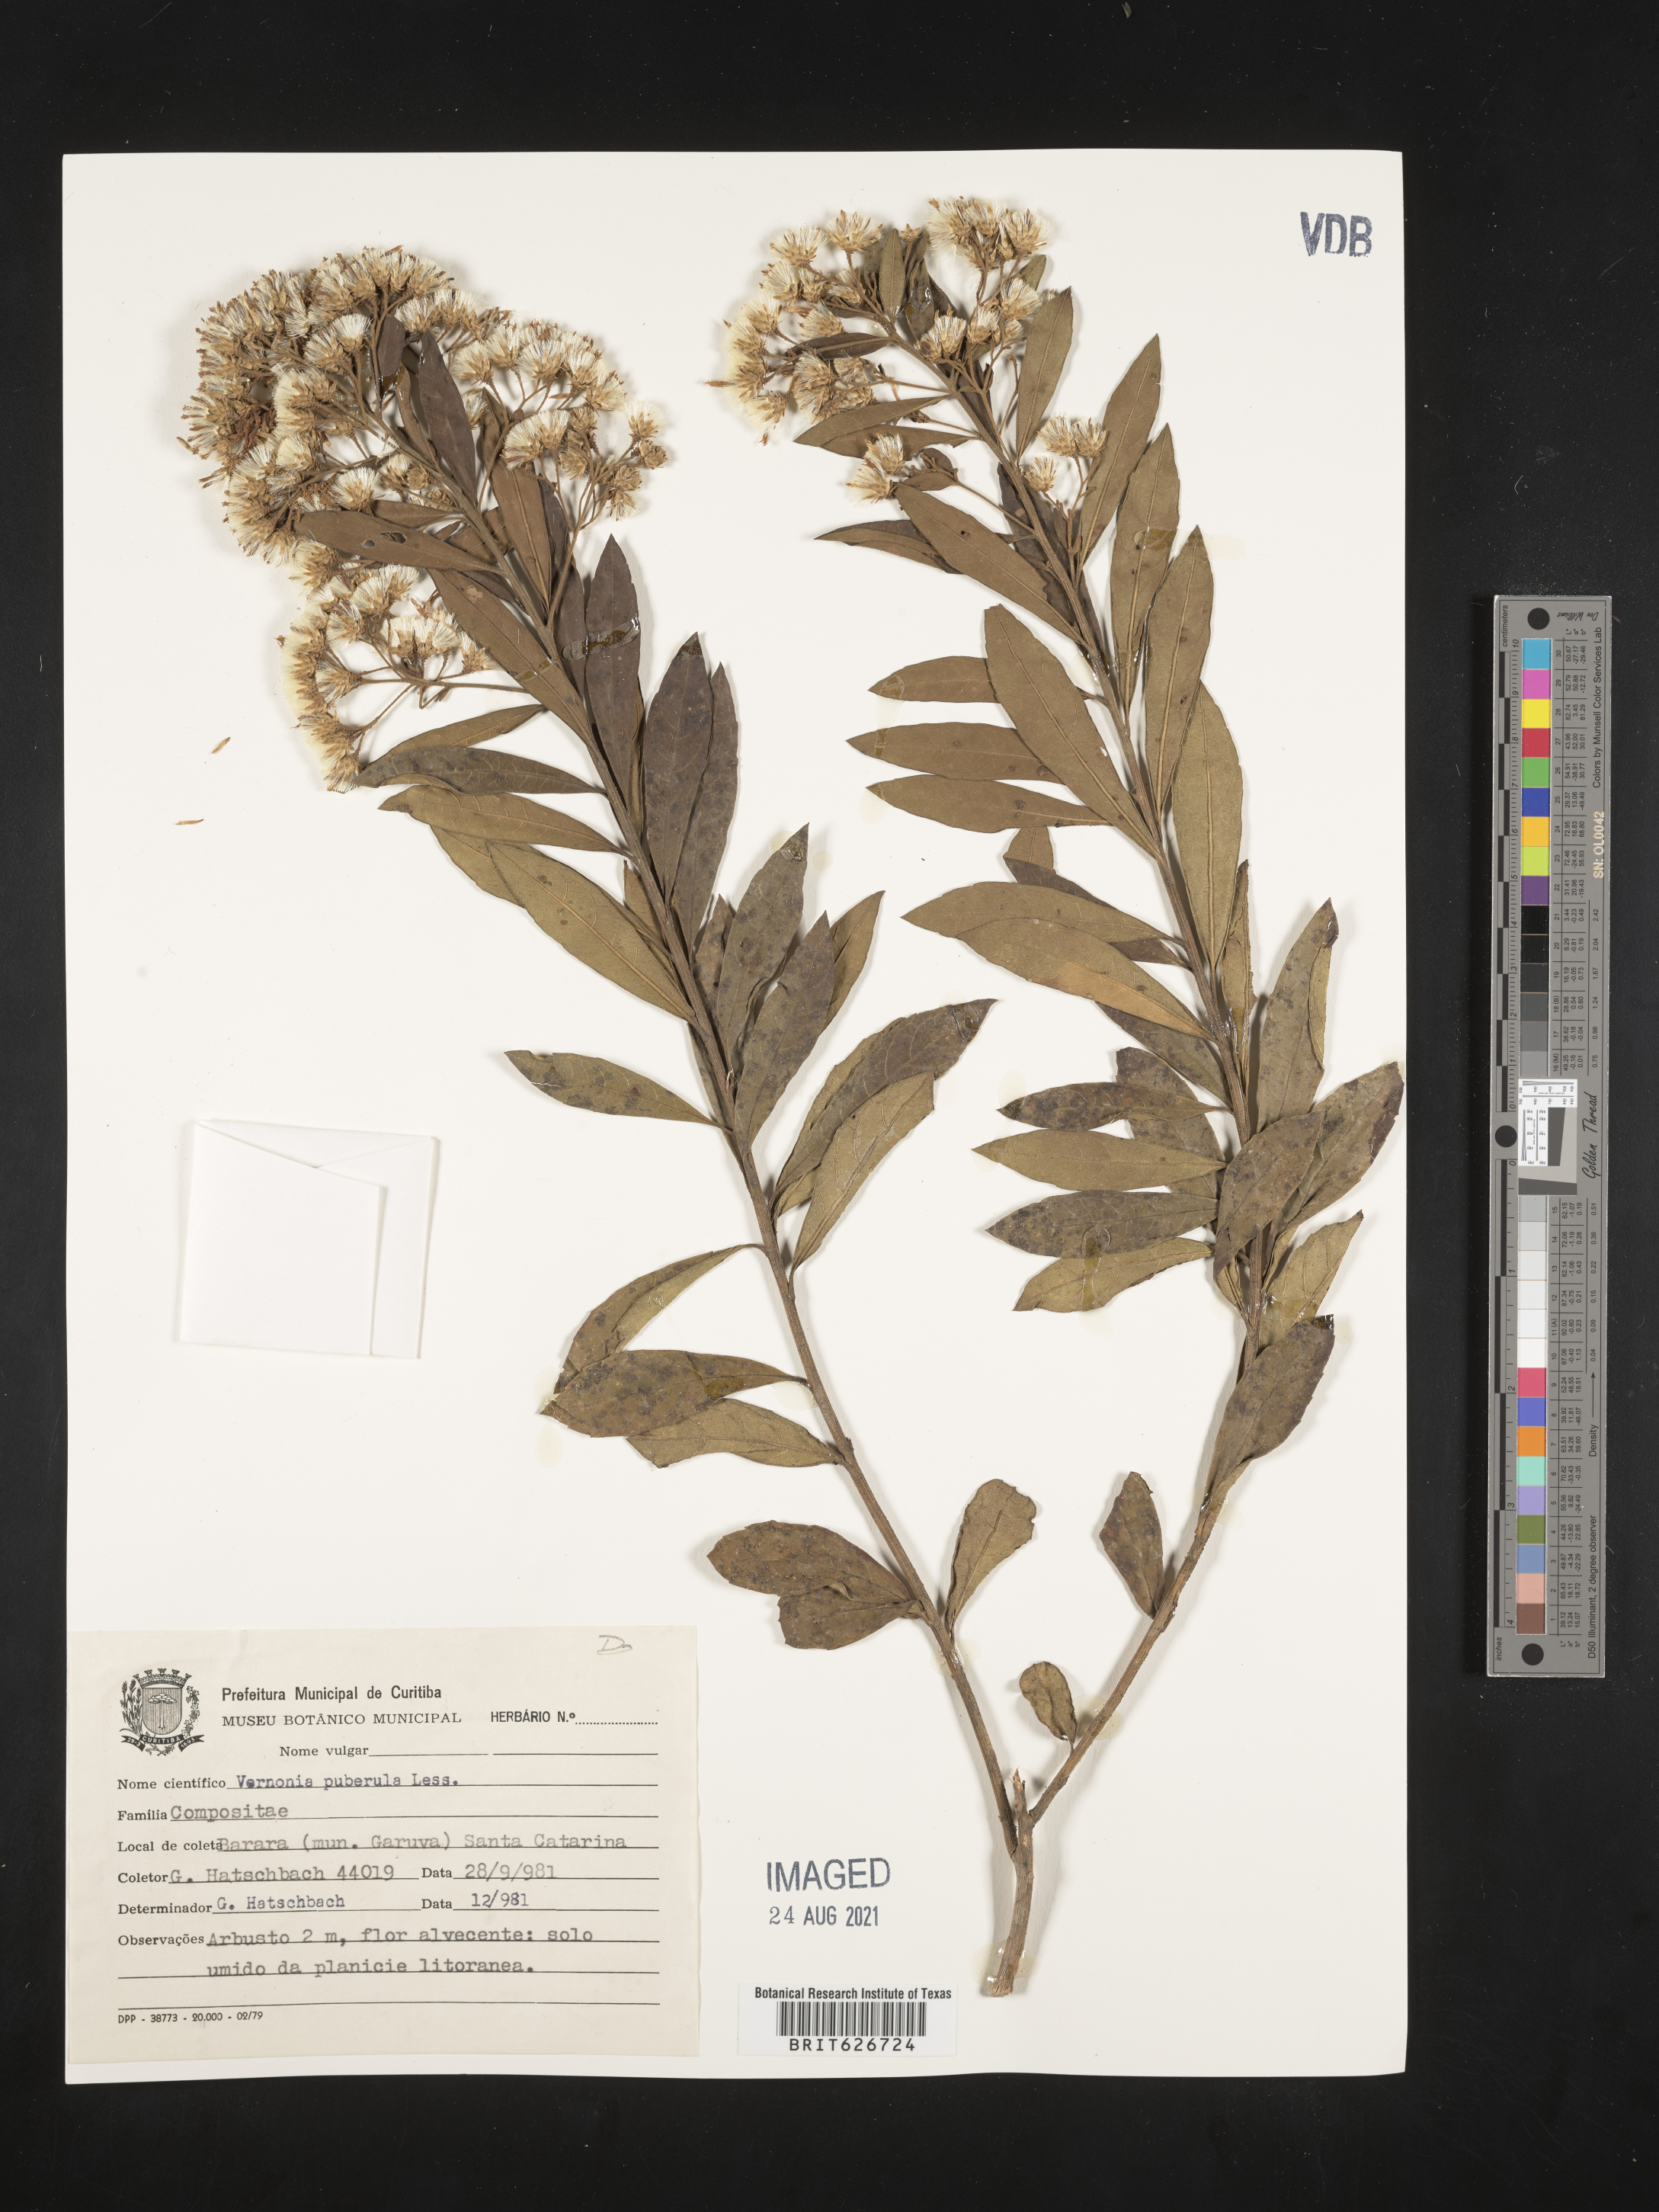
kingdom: Plantae
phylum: Tracheophyta
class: Magnoliopsida
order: Asterales
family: Asteraceae
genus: Vernonanthura
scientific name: Vernonanthura puberula
